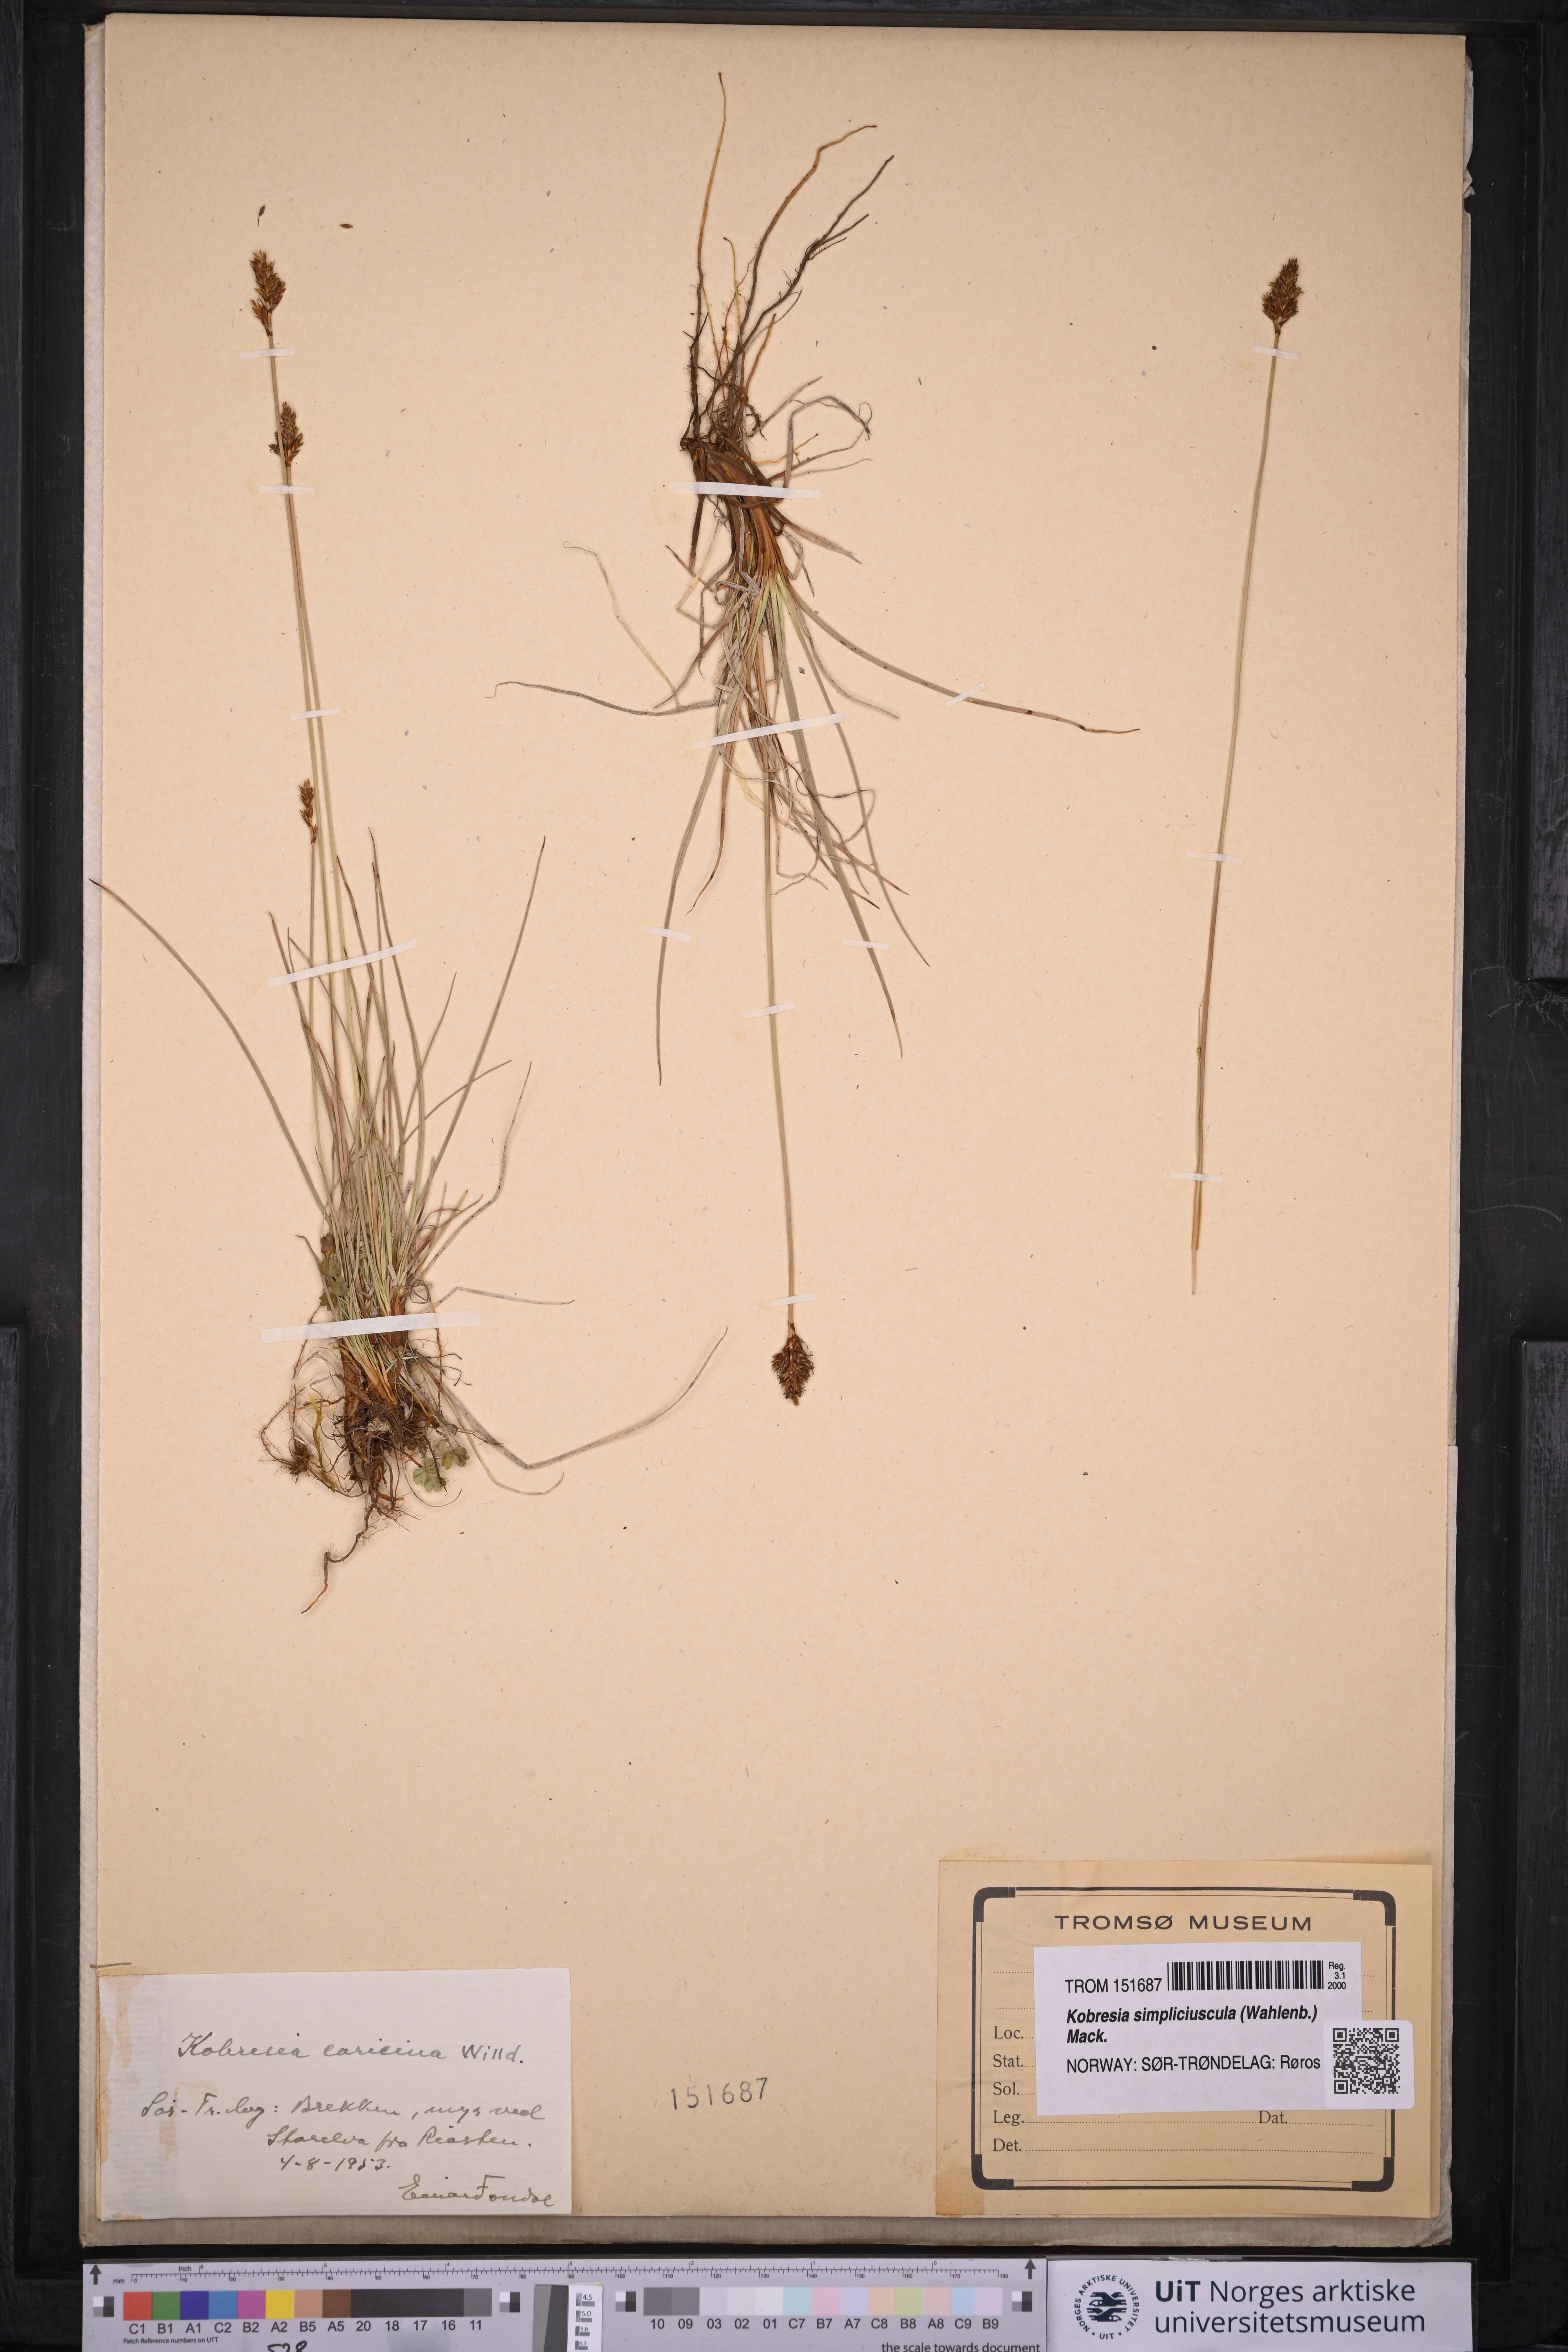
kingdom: Plantae
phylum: Tracheophyta
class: Liliopsida
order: Poales
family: Cyperaceae
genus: Carex
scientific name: Carex simpliciuscula
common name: Simple bog sedge
